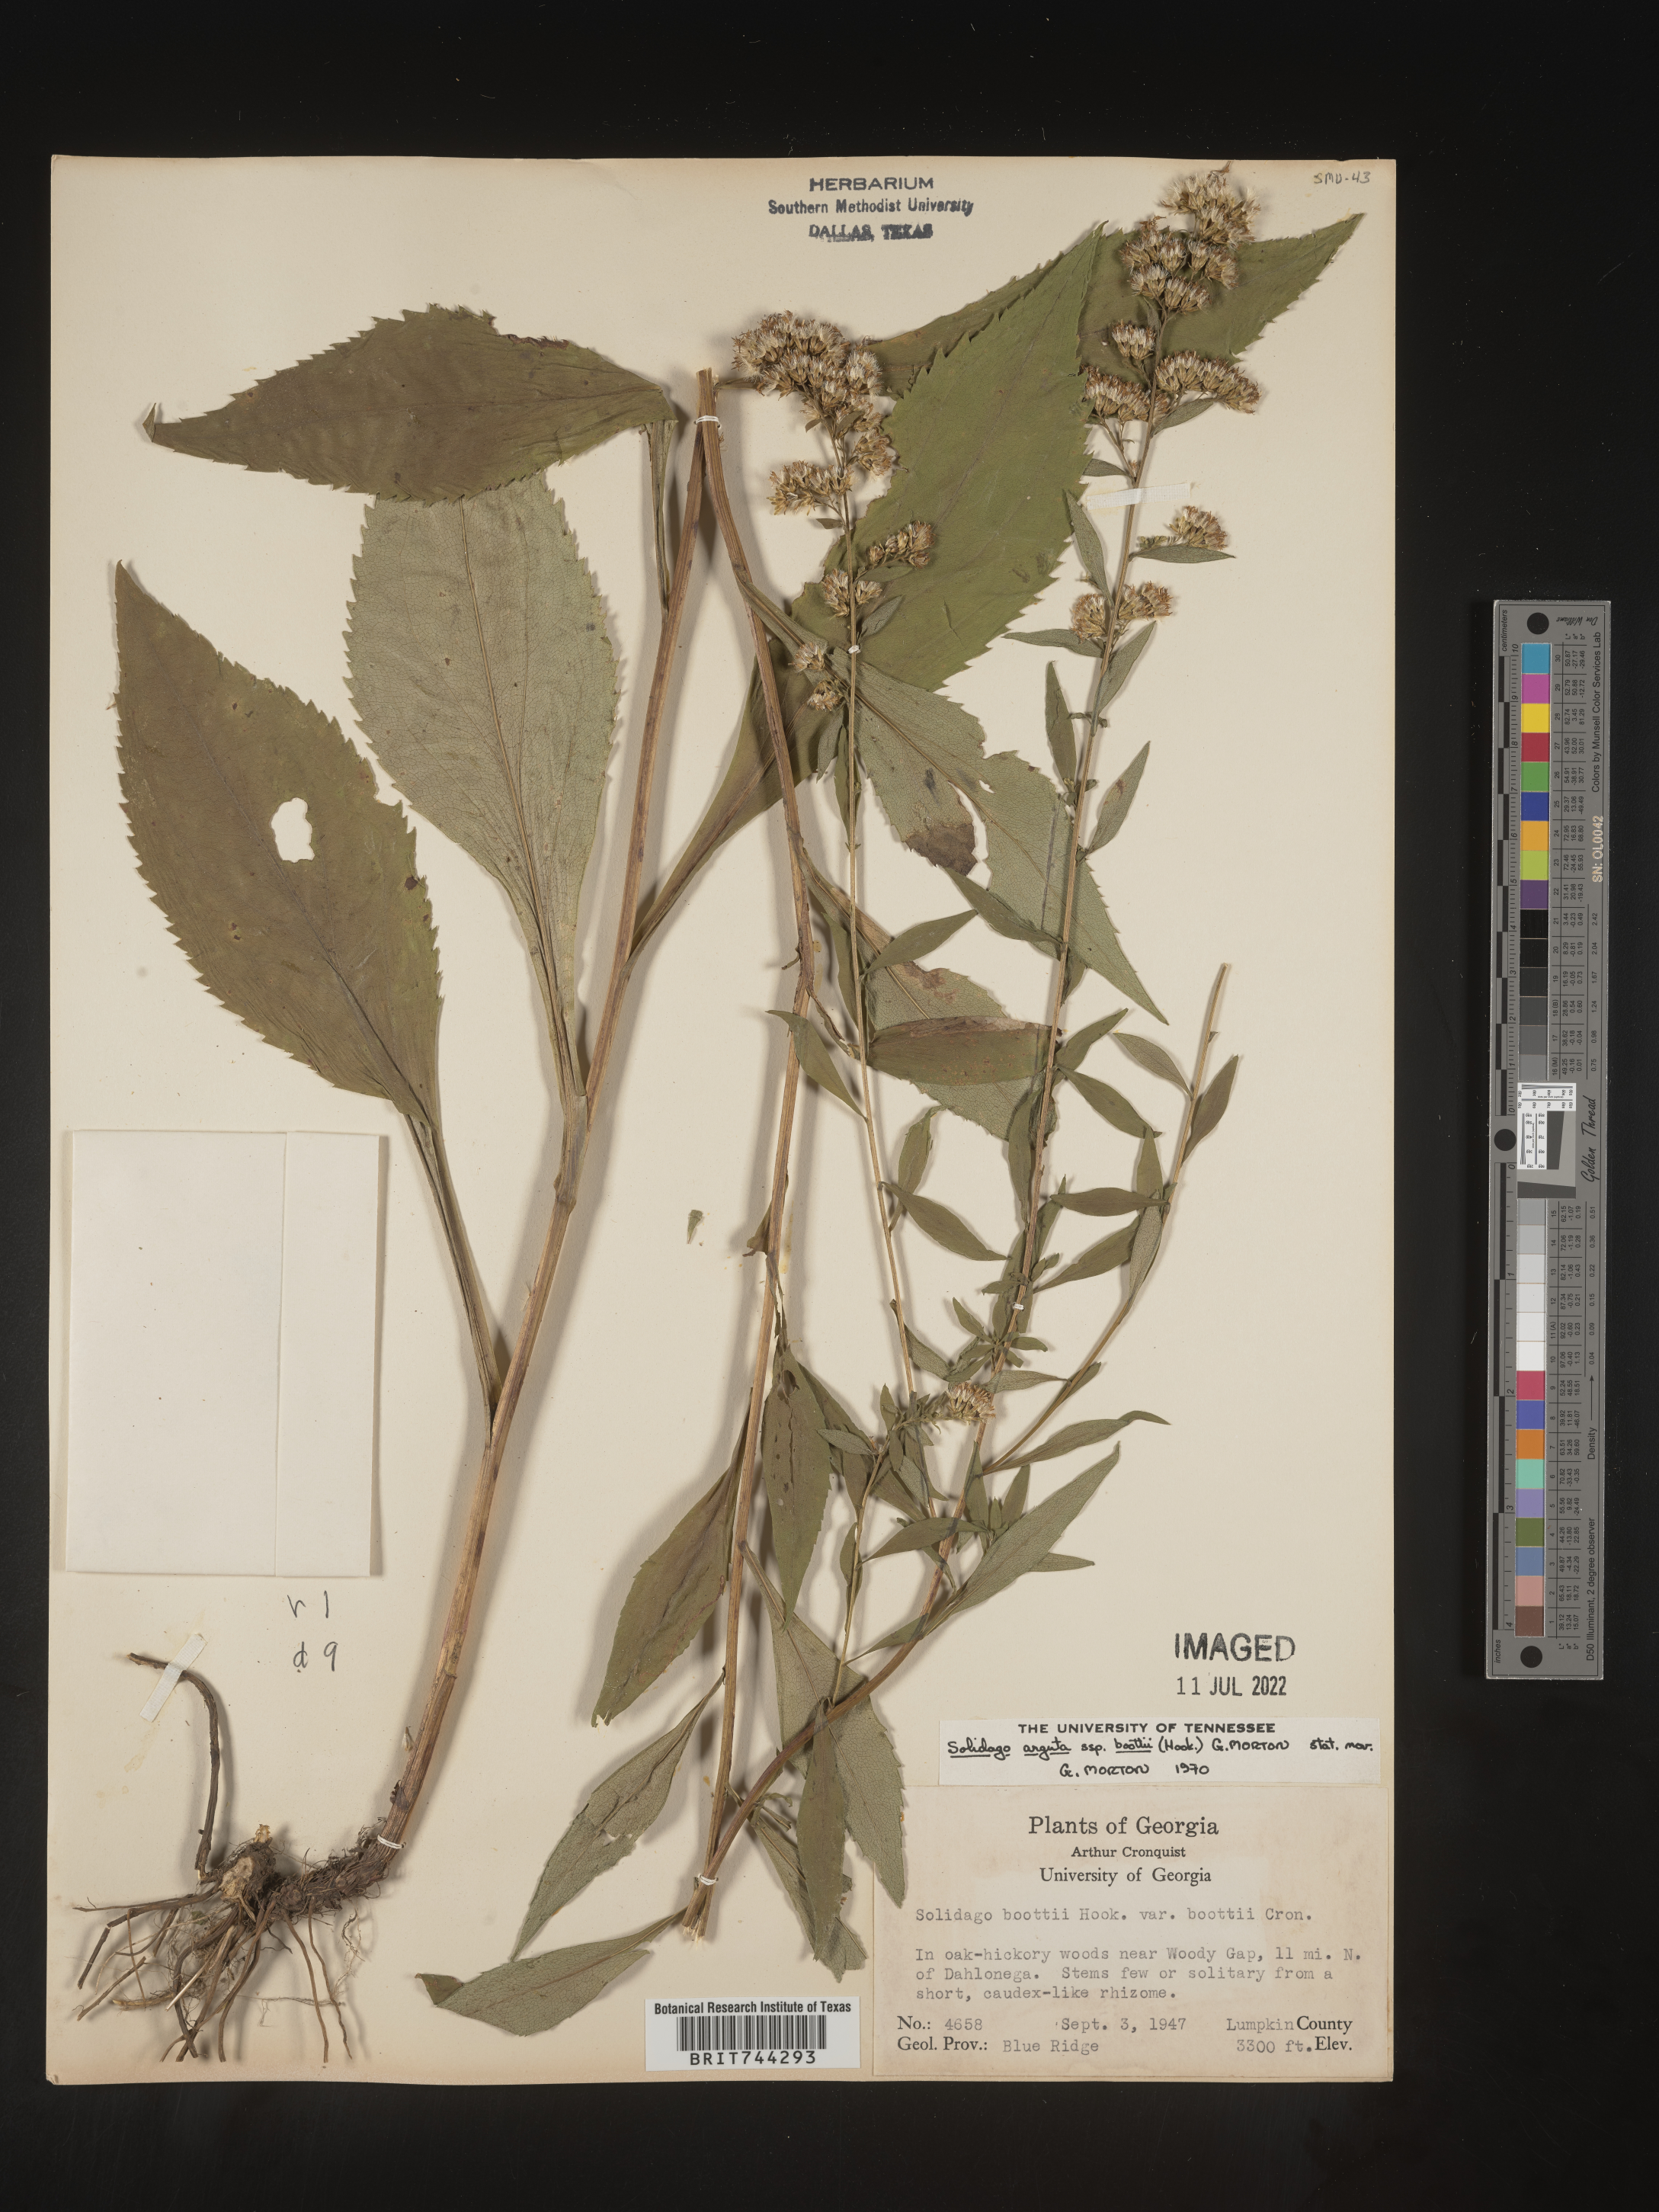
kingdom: Plantae
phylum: Tracheophyta
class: Magnoliopsida
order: Asterales
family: Asteraceae
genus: Solidago
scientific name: Solidago arguta
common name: Atlantic goldenrod
